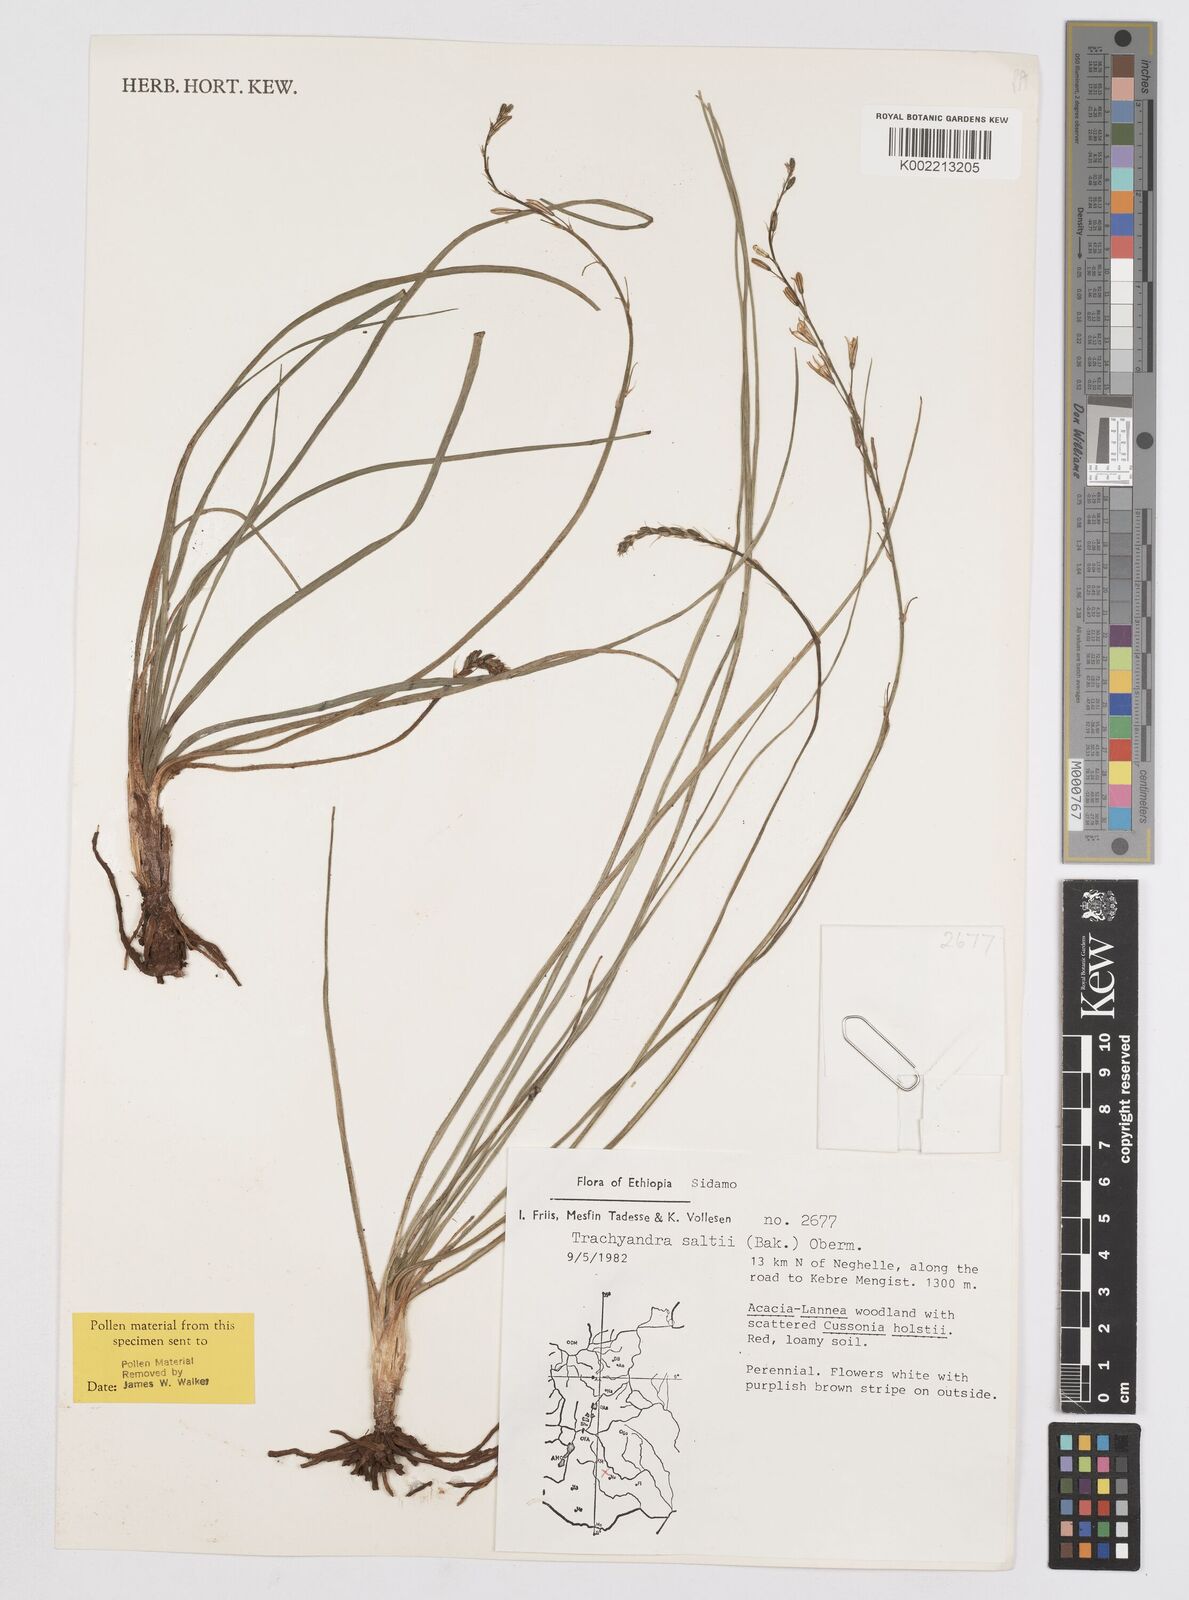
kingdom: Plantae
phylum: Tracheophyta
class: Liliopsida
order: Asparagales
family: Asphodelaceae
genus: Trachyandra
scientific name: Trachyandra saltii
